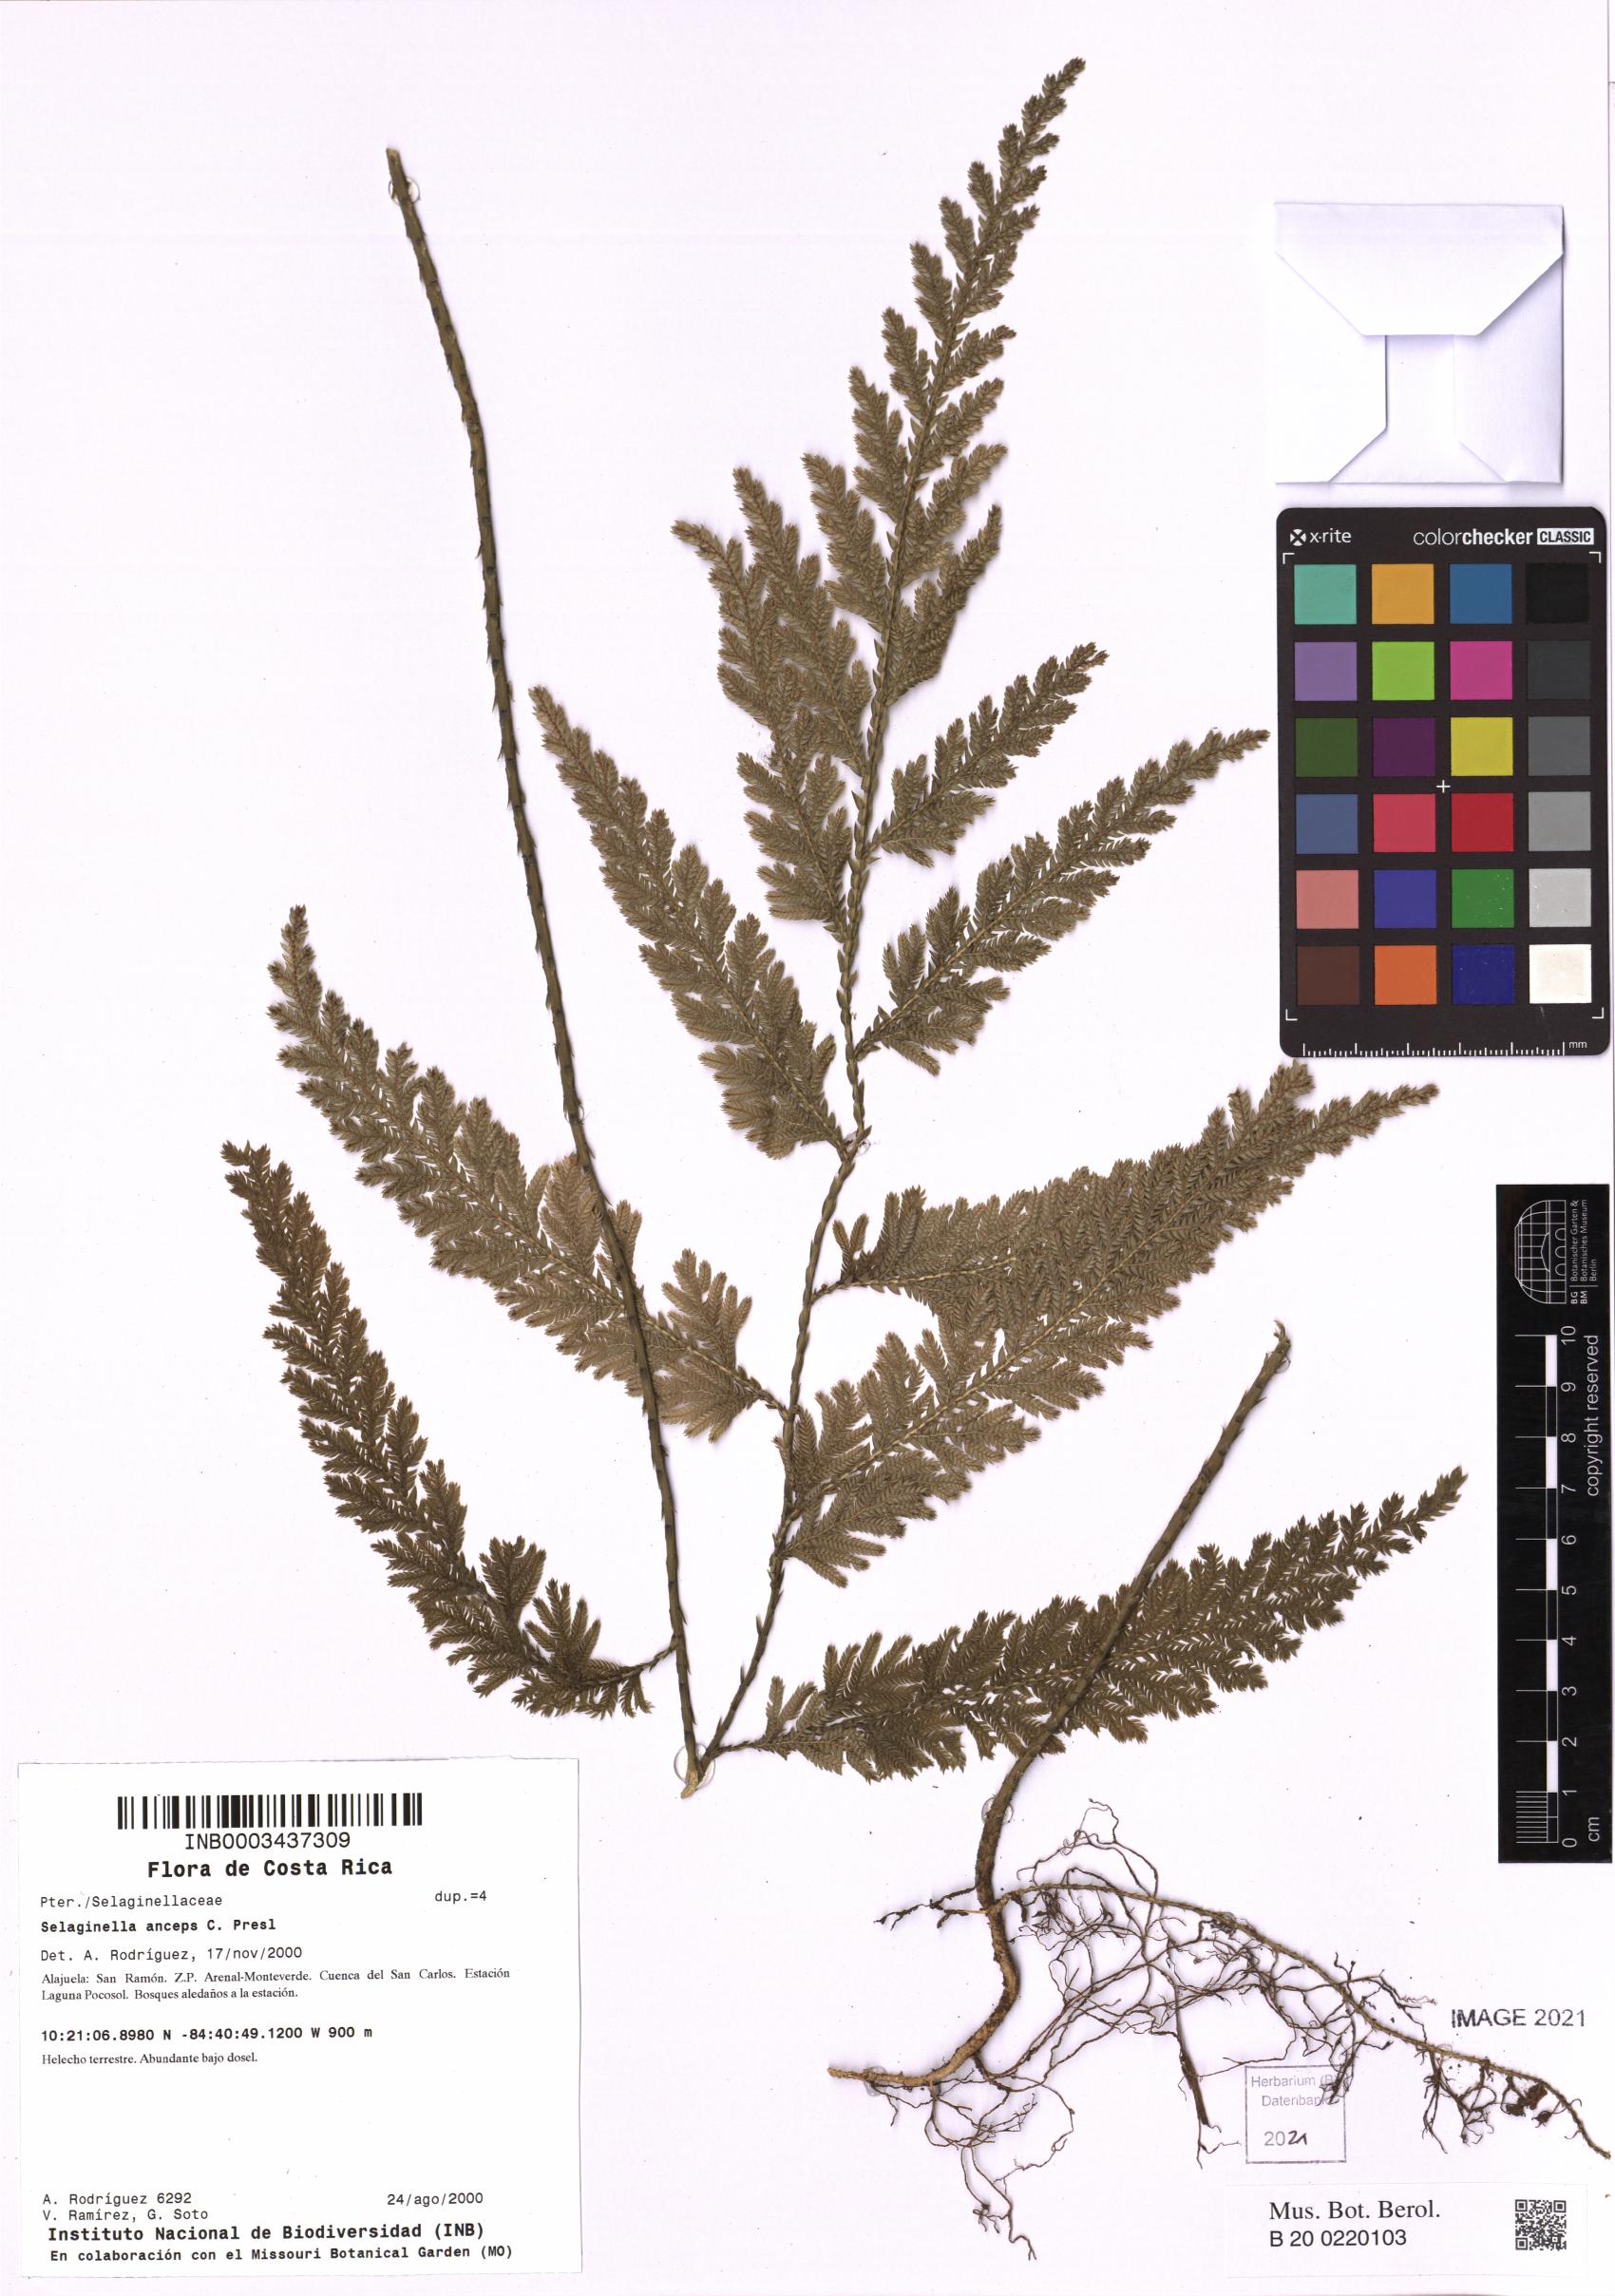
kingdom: Plantae
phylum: Tracheophyta
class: Lycopodiopsida
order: Selaginellales
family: Selaginellaceae
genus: Selaginella
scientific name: Selaginella anceps
